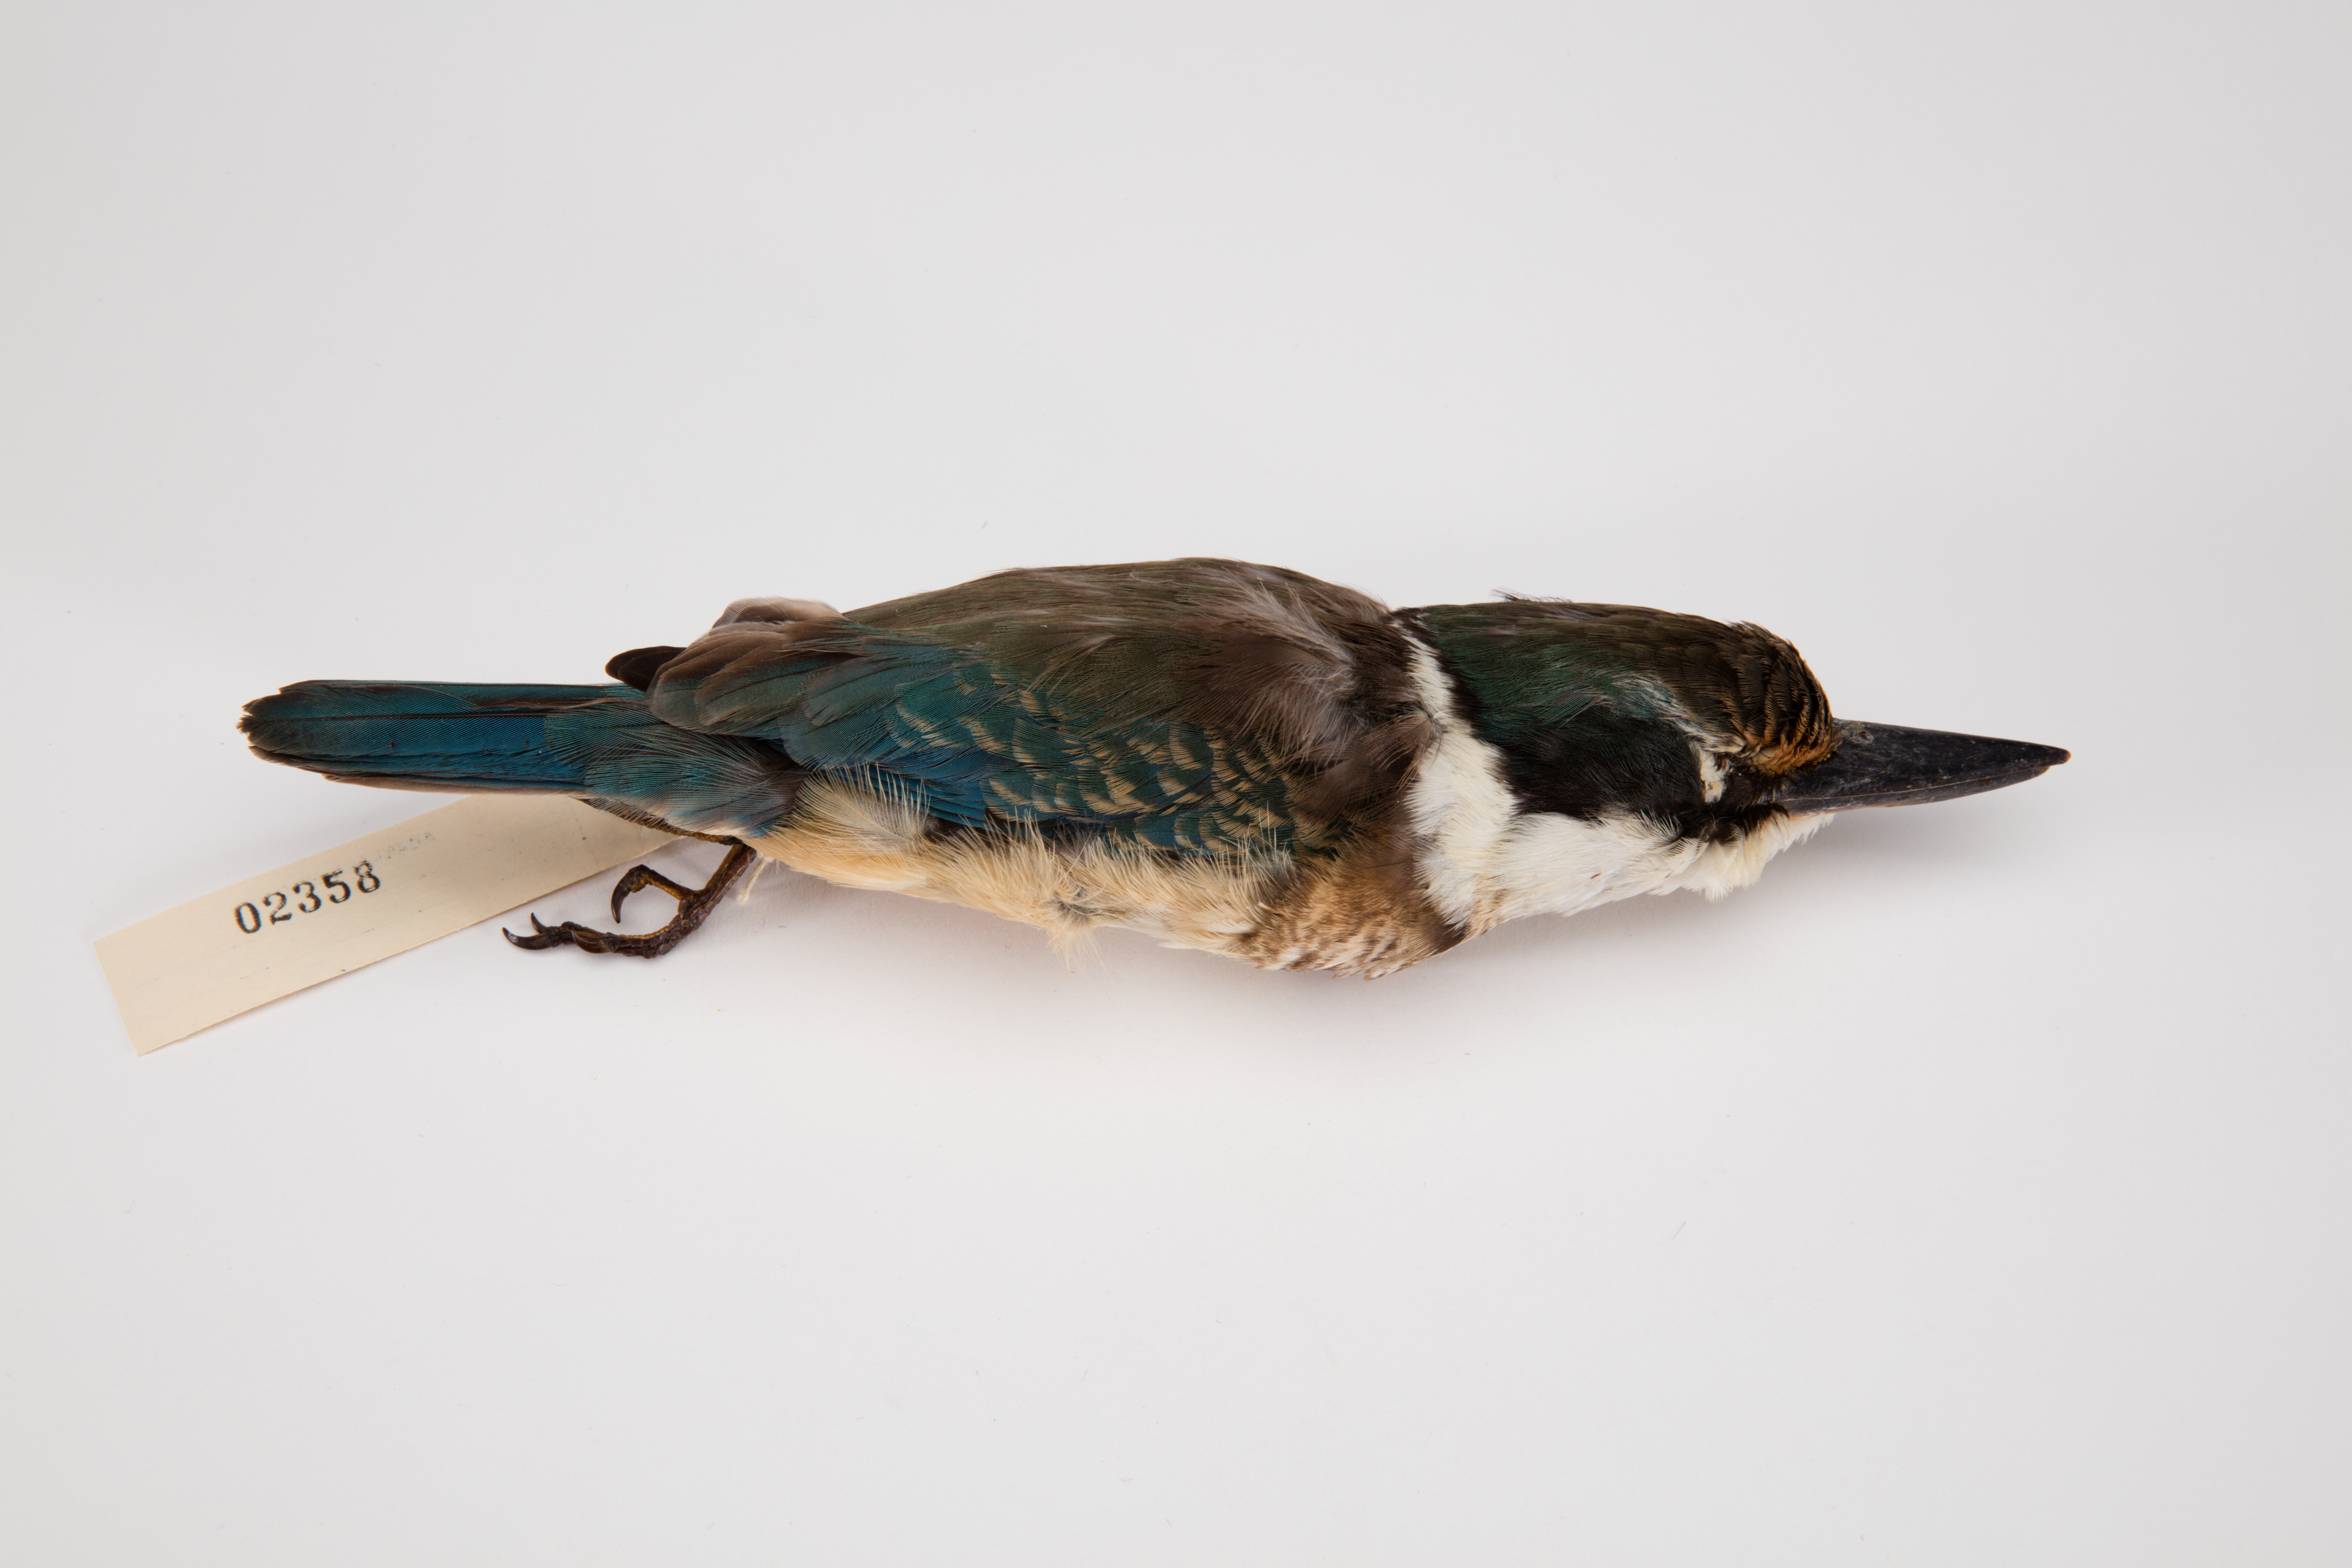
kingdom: Animalia
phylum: Chordata
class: Aves
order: Coraciiformes
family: Alcedinidae
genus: Todiramphus
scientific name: Todiramphus sanctus
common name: Sacred kingfisher
